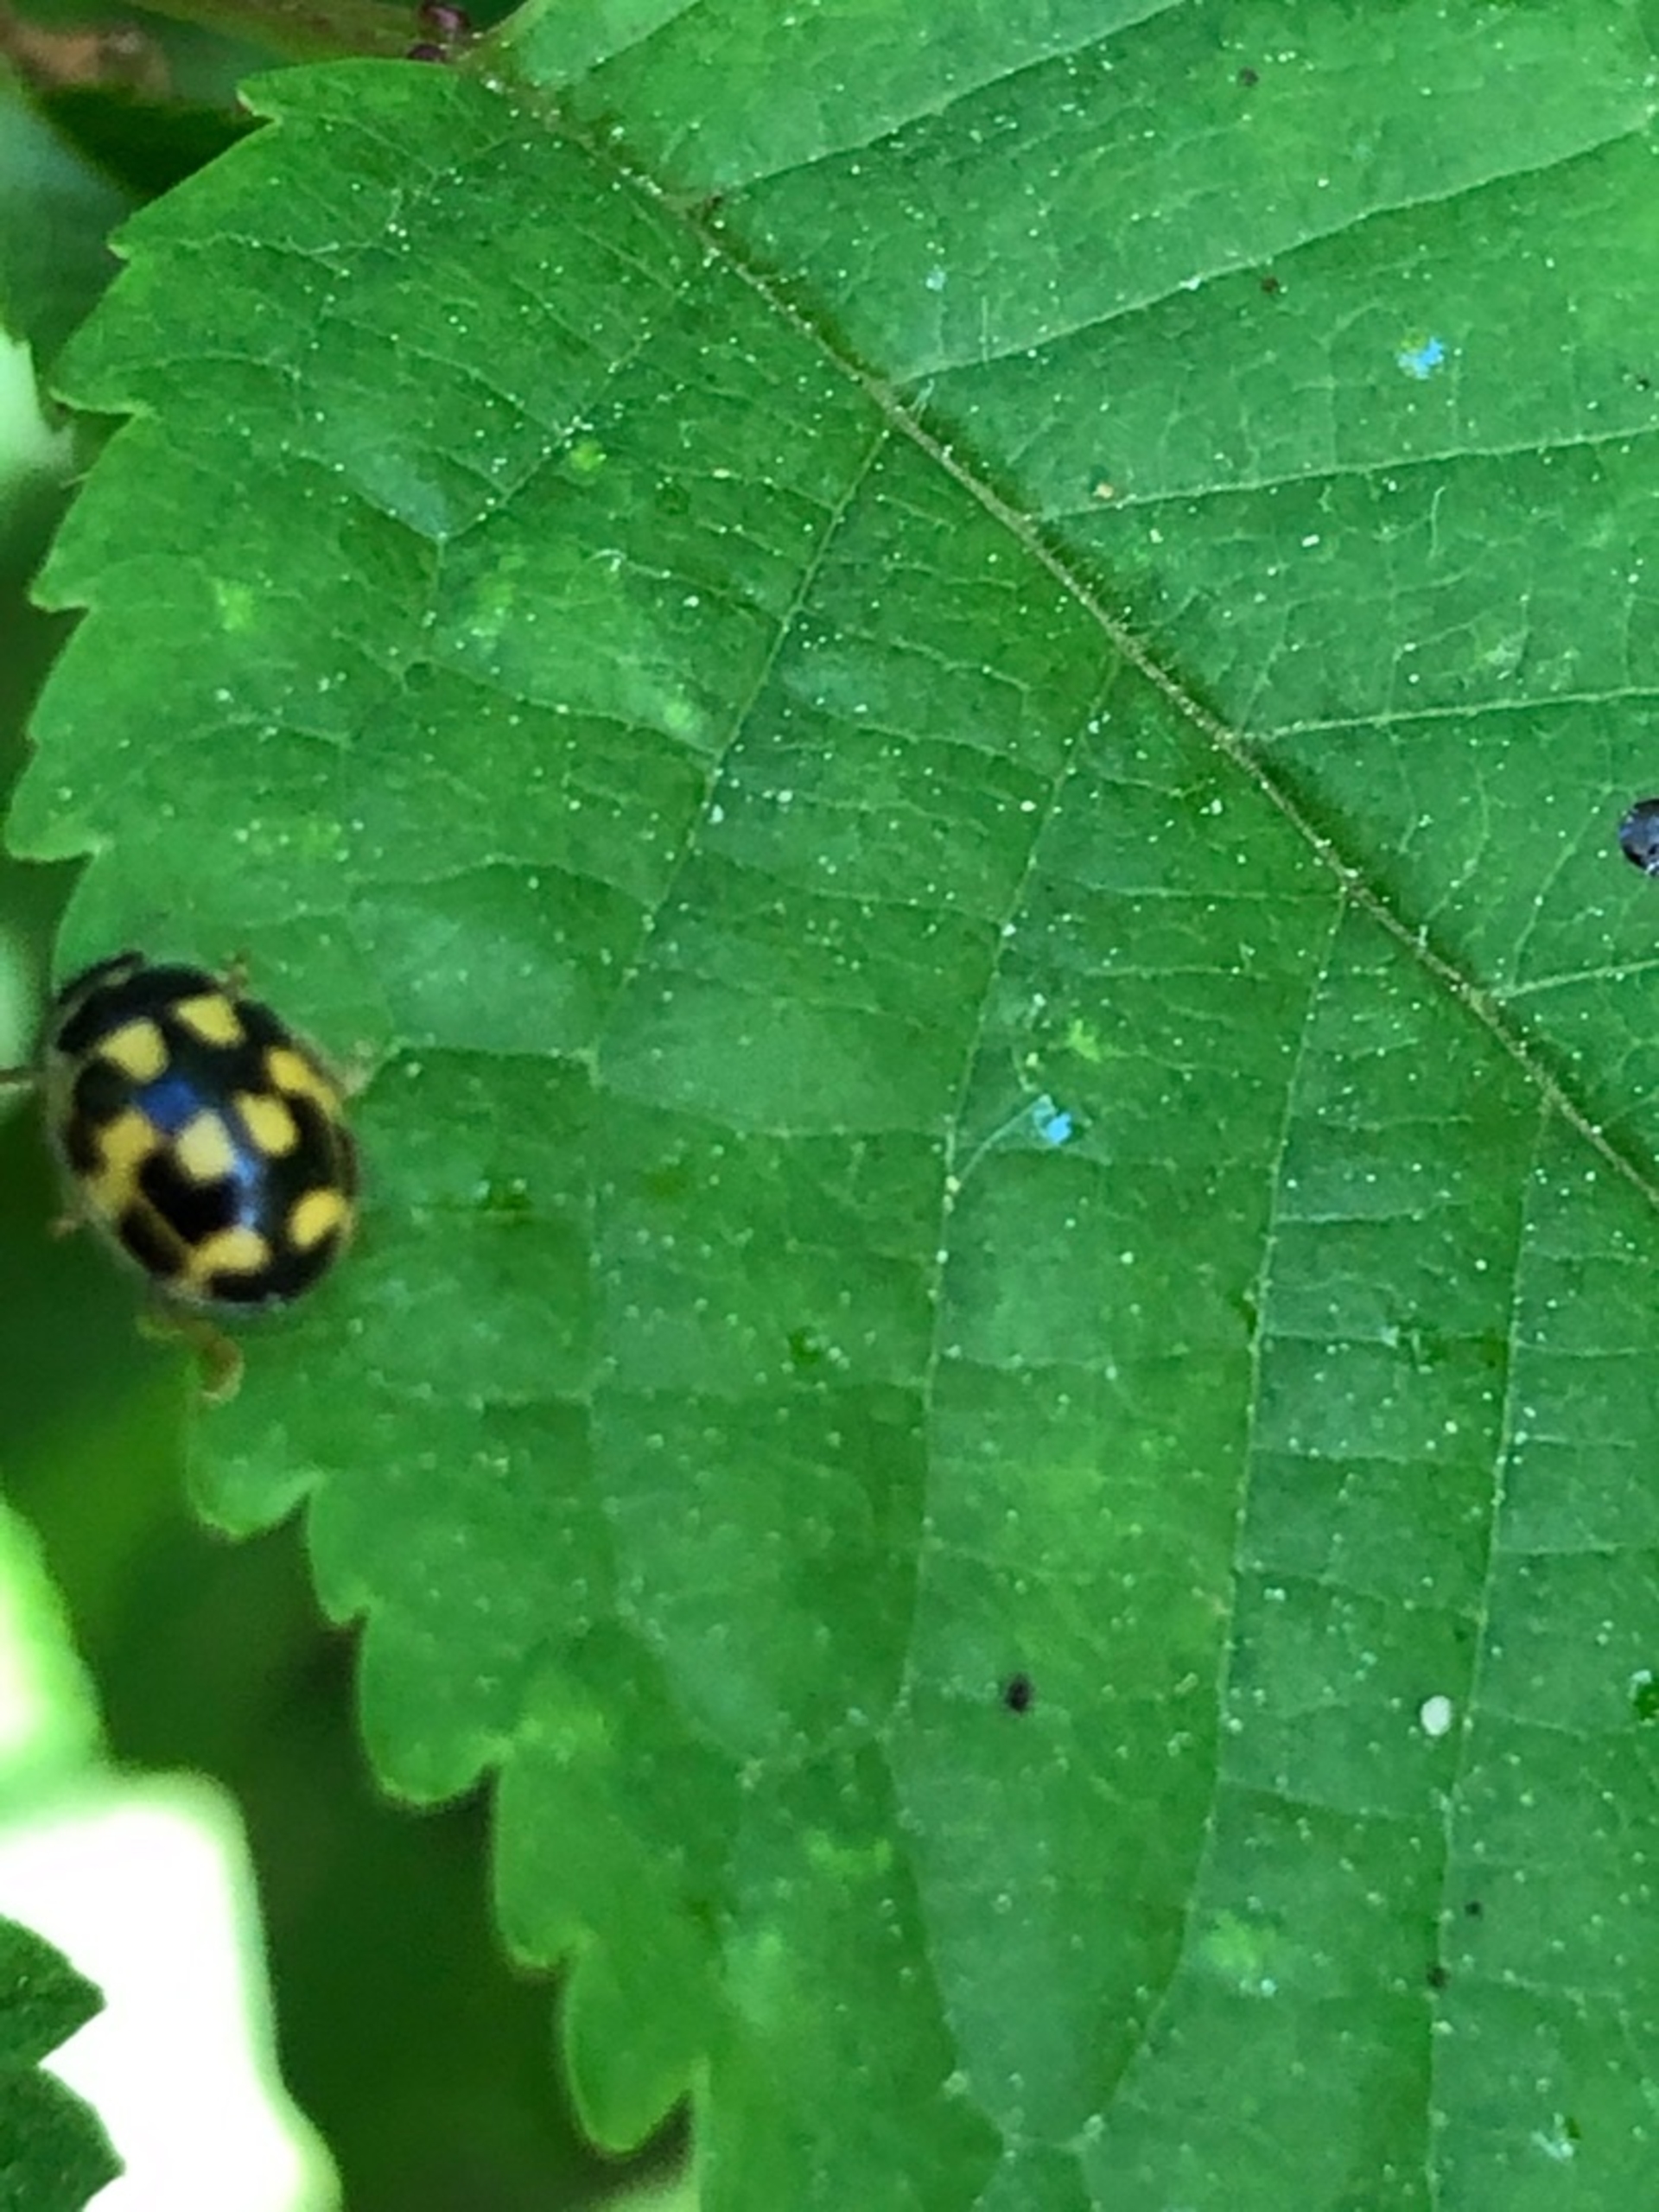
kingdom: Animalia
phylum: Arthropoda
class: Insecta
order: Coleoptera
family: Coccinellidae
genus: Propylaea
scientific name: Propylaea quatuordecimpunctata
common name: Skakbræt
